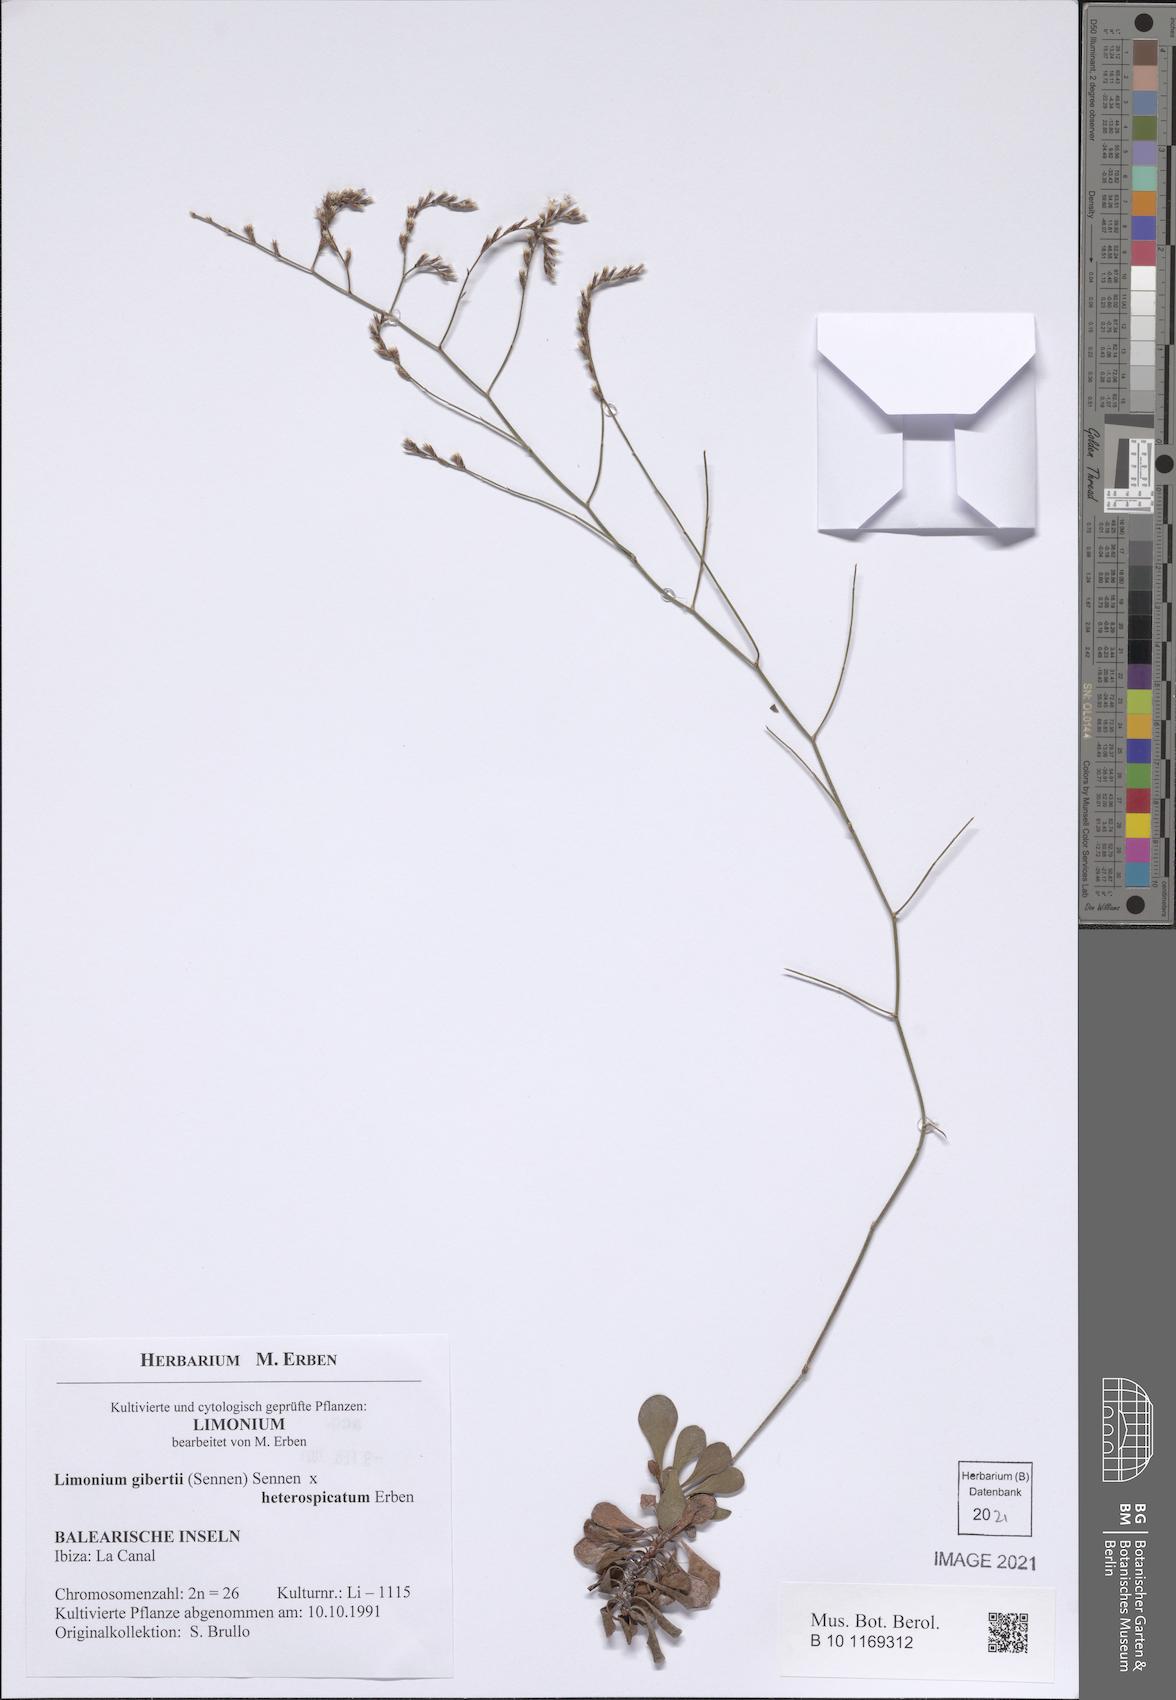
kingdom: Plantae
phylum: Tracheophyta
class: Magnoliopsida
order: Caryophyllales
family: Plumbaginaceae
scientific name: Plumbaginaceae
